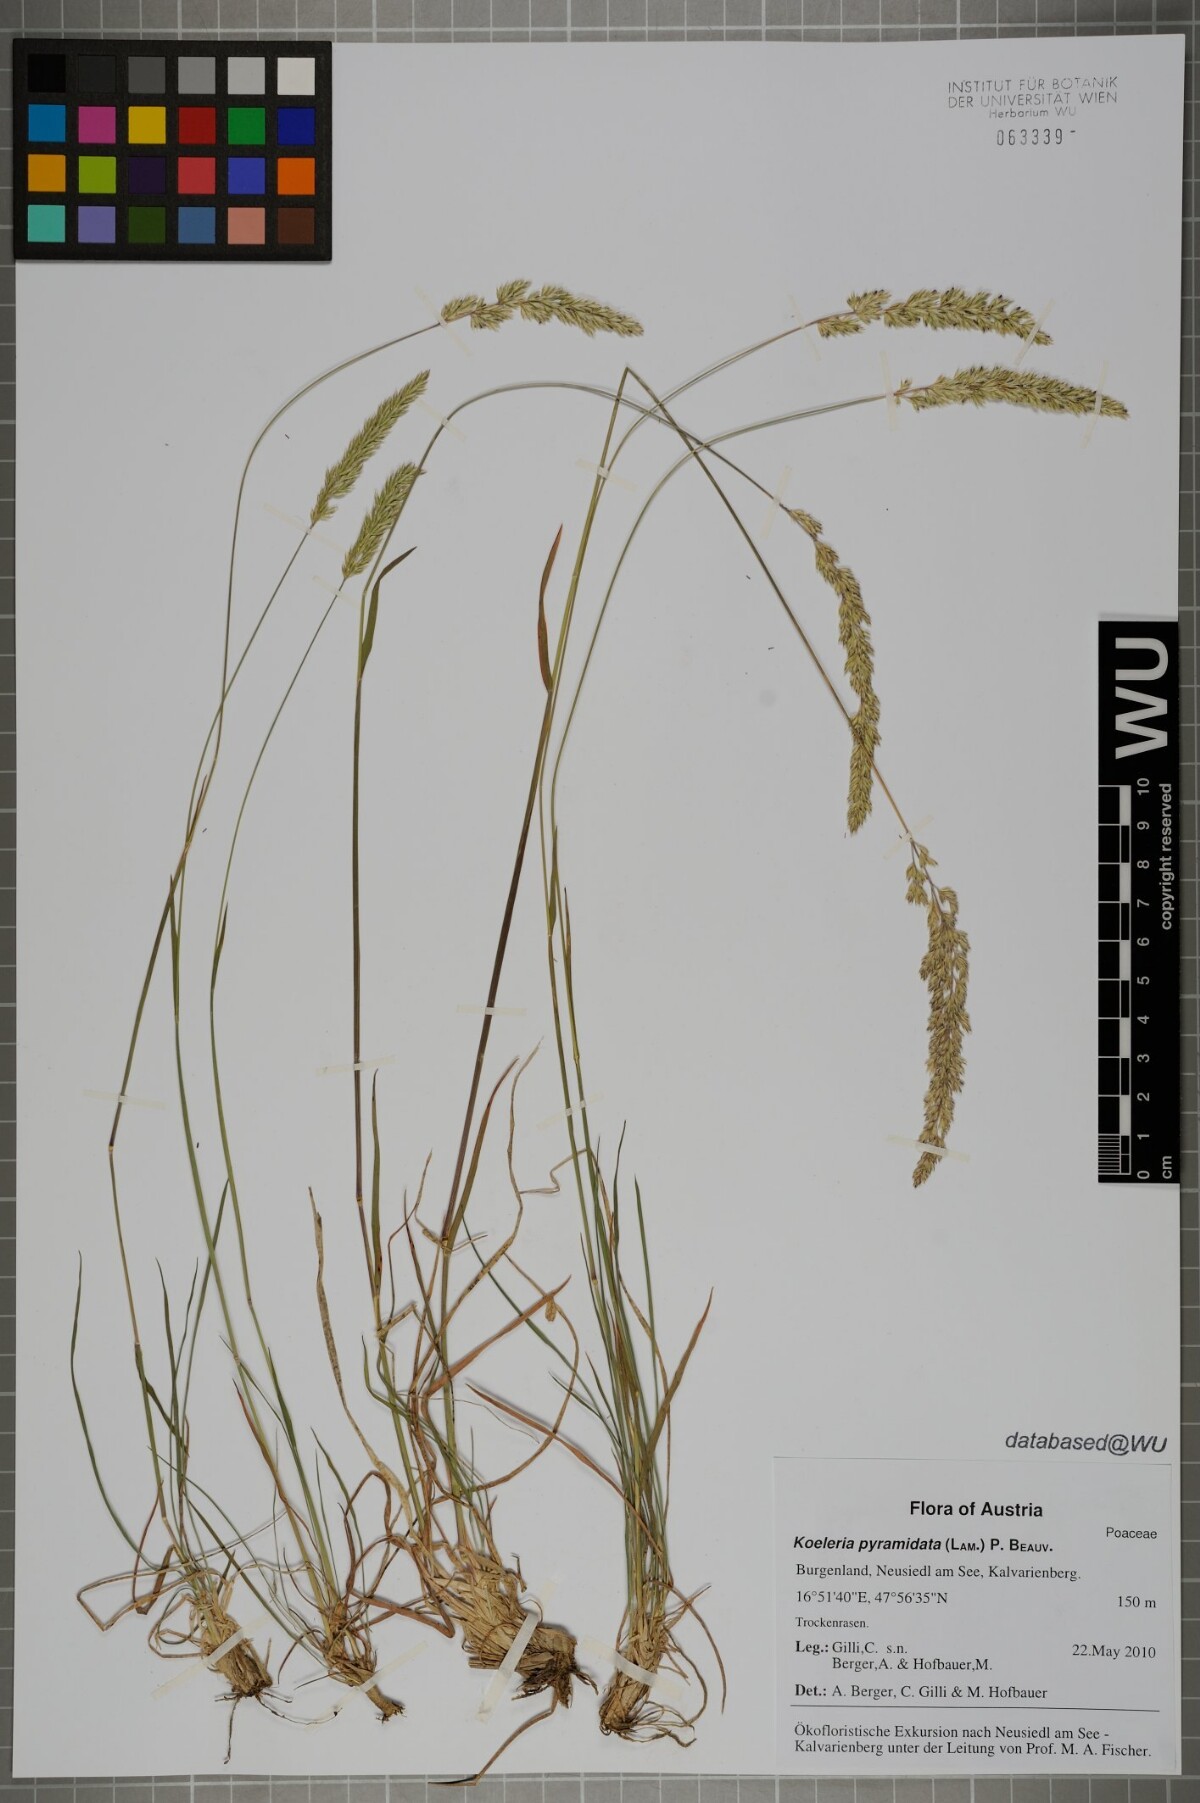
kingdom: Plantae
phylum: Tracheophyta
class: Liliopsida
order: Poales
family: Poaceae
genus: Koeleria
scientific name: Koeleria pyramidata
